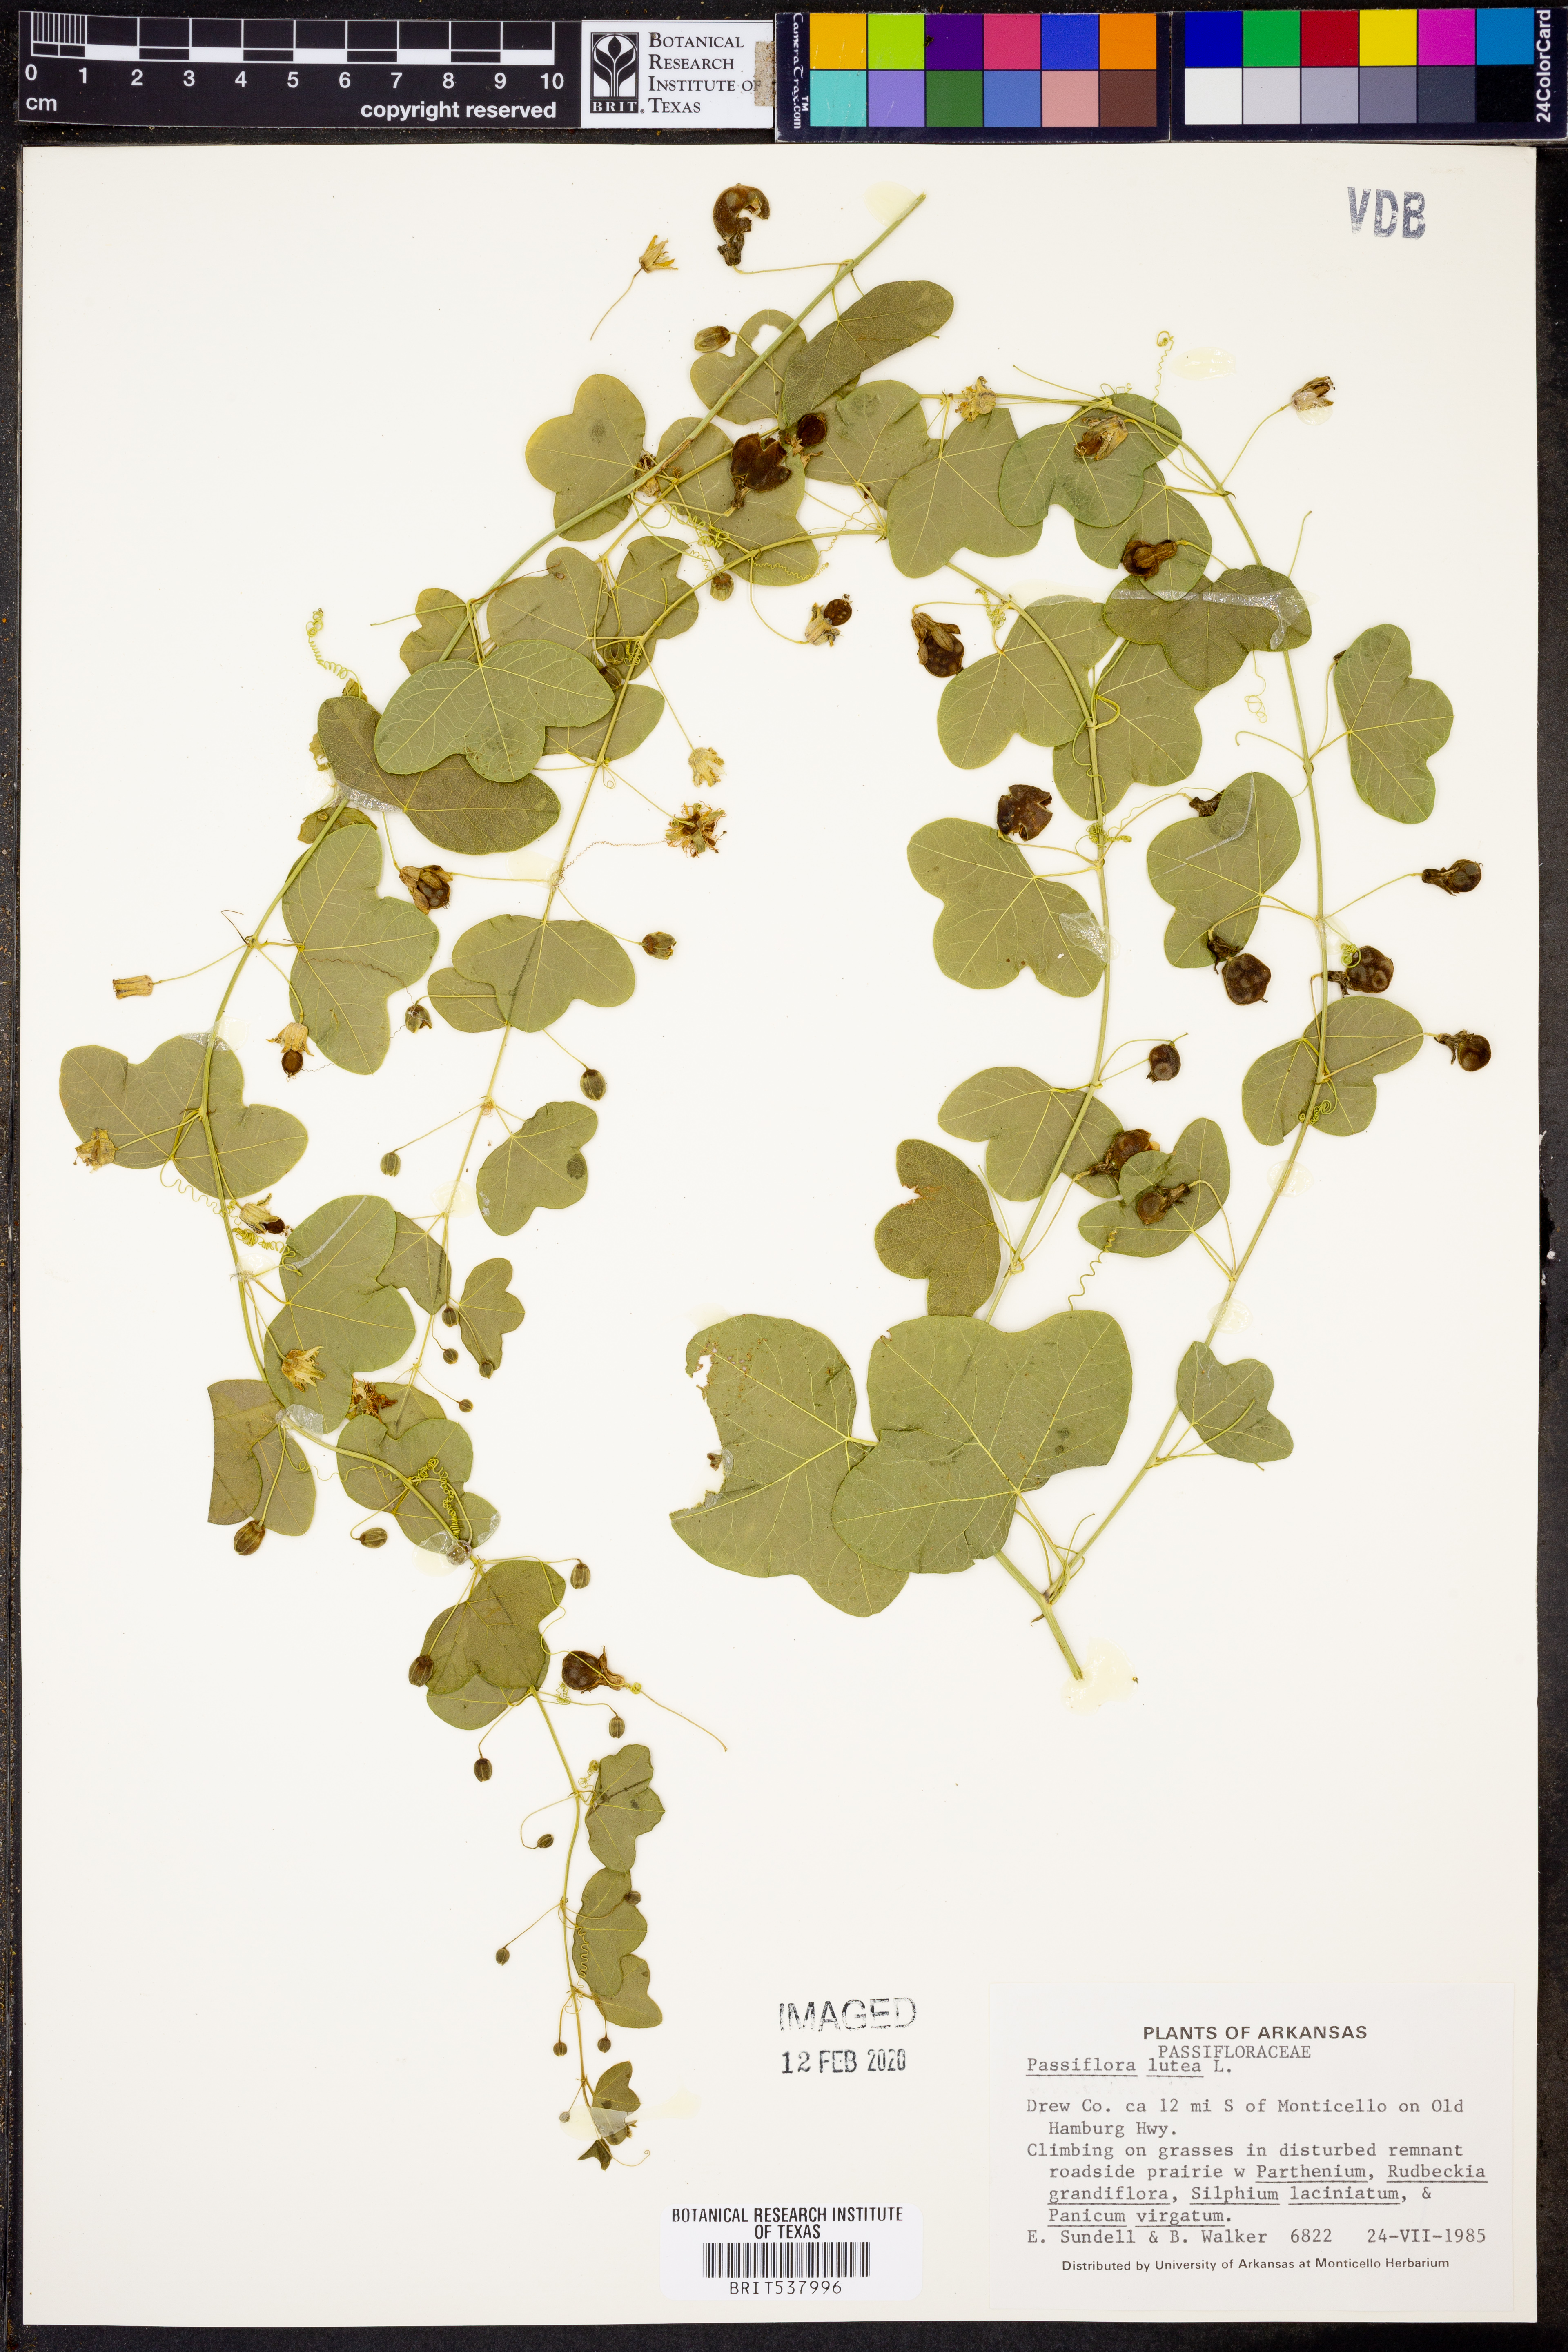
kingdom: Plantae
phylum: Tracheophyta
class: Magnoliopsida
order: Malpighiales
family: Passifloraceae
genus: Passiflora
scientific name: Passiflora lutea
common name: Yellow passionflower
